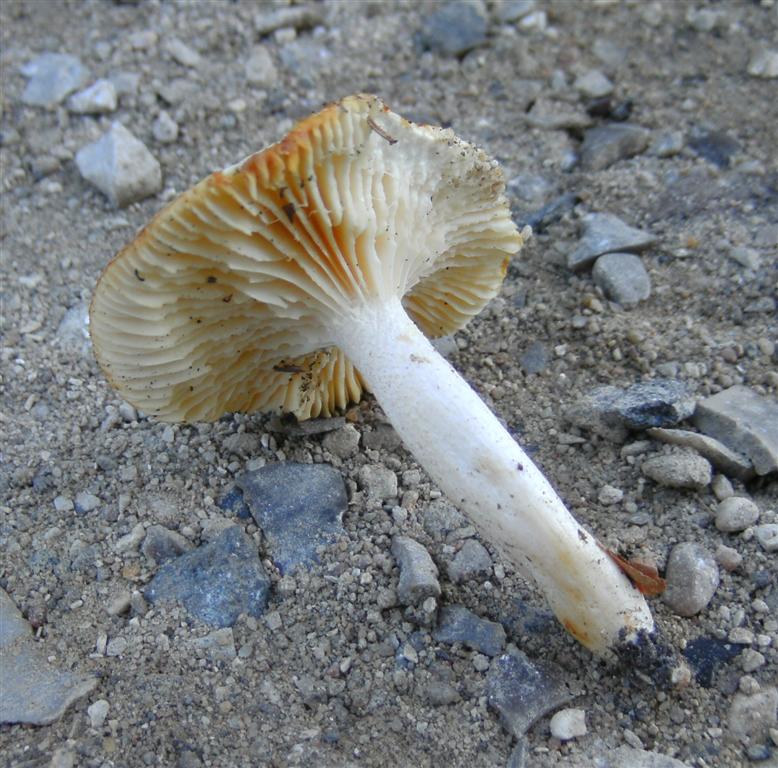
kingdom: Fungi
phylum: Basidiomycota
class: Agaricomycetes
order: Agaricales
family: Hygrophoraceae
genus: Hygrophorus
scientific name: Hygrophorus discoxanthus
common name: ildelugtende sneglehat
